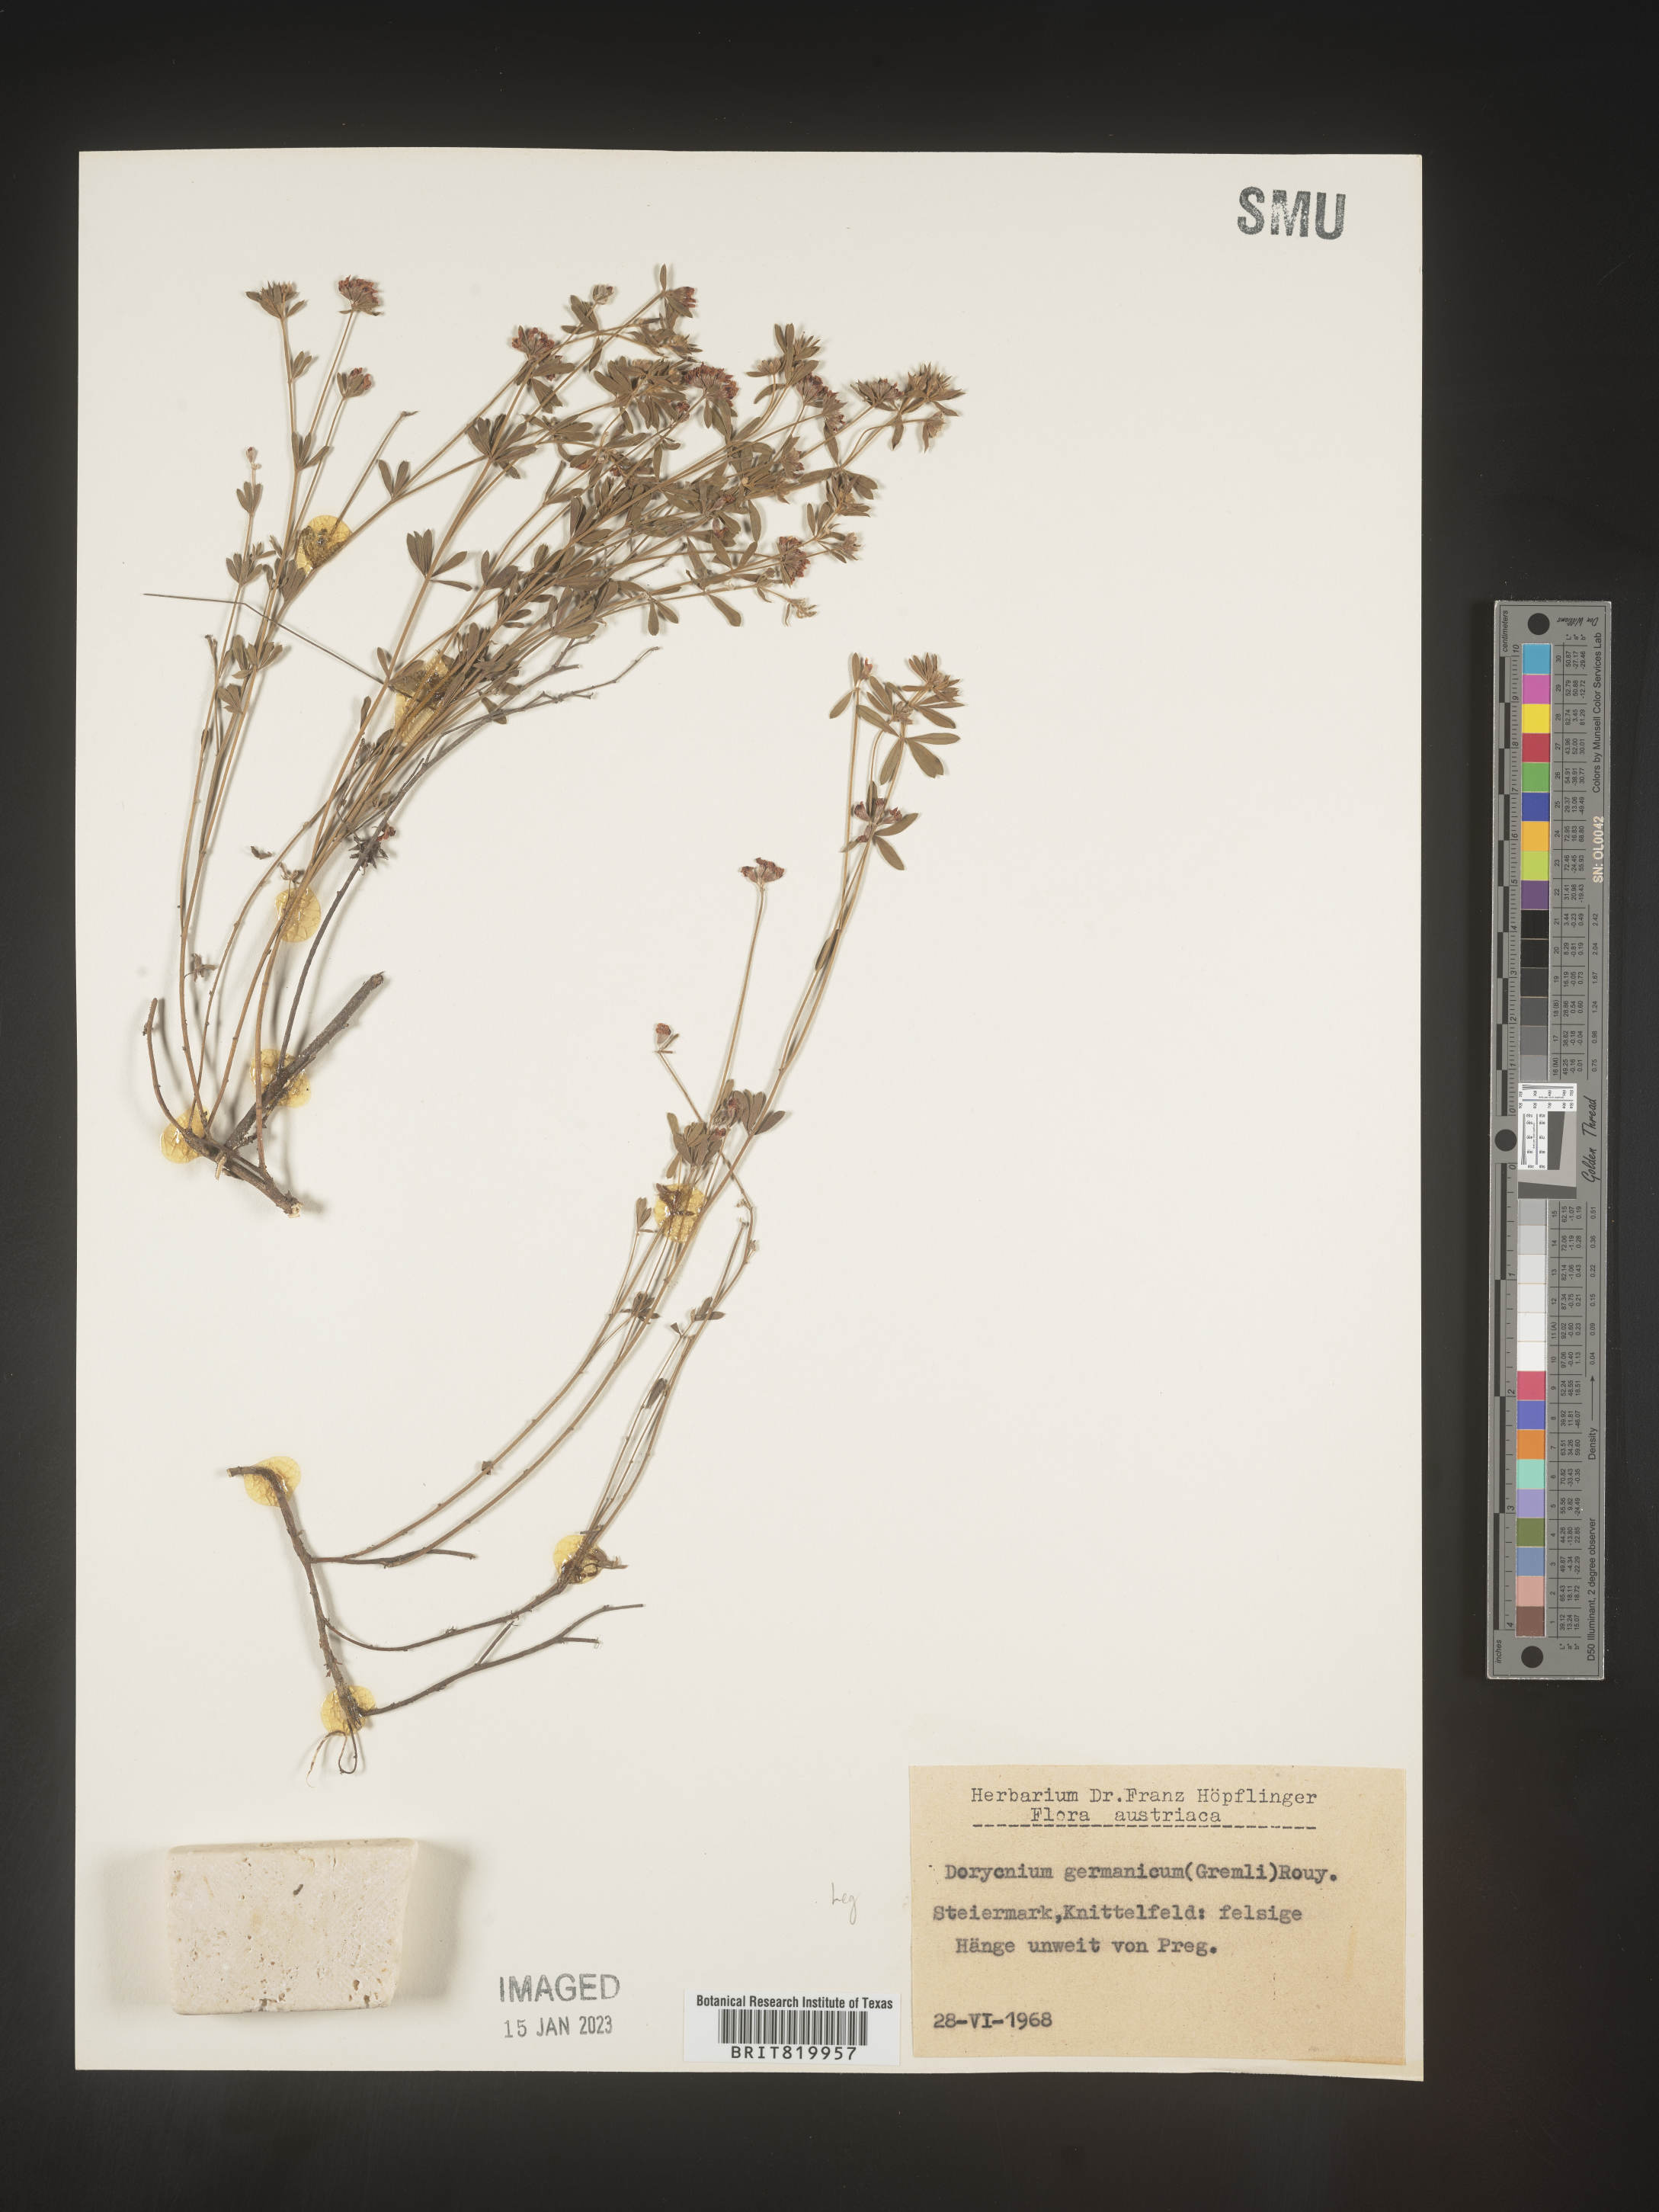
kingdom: Plantae
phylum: Tracheophyta
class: Magnoliopsida
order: Fabales
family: Fabaceae
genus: Lotus
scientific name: Lotus
